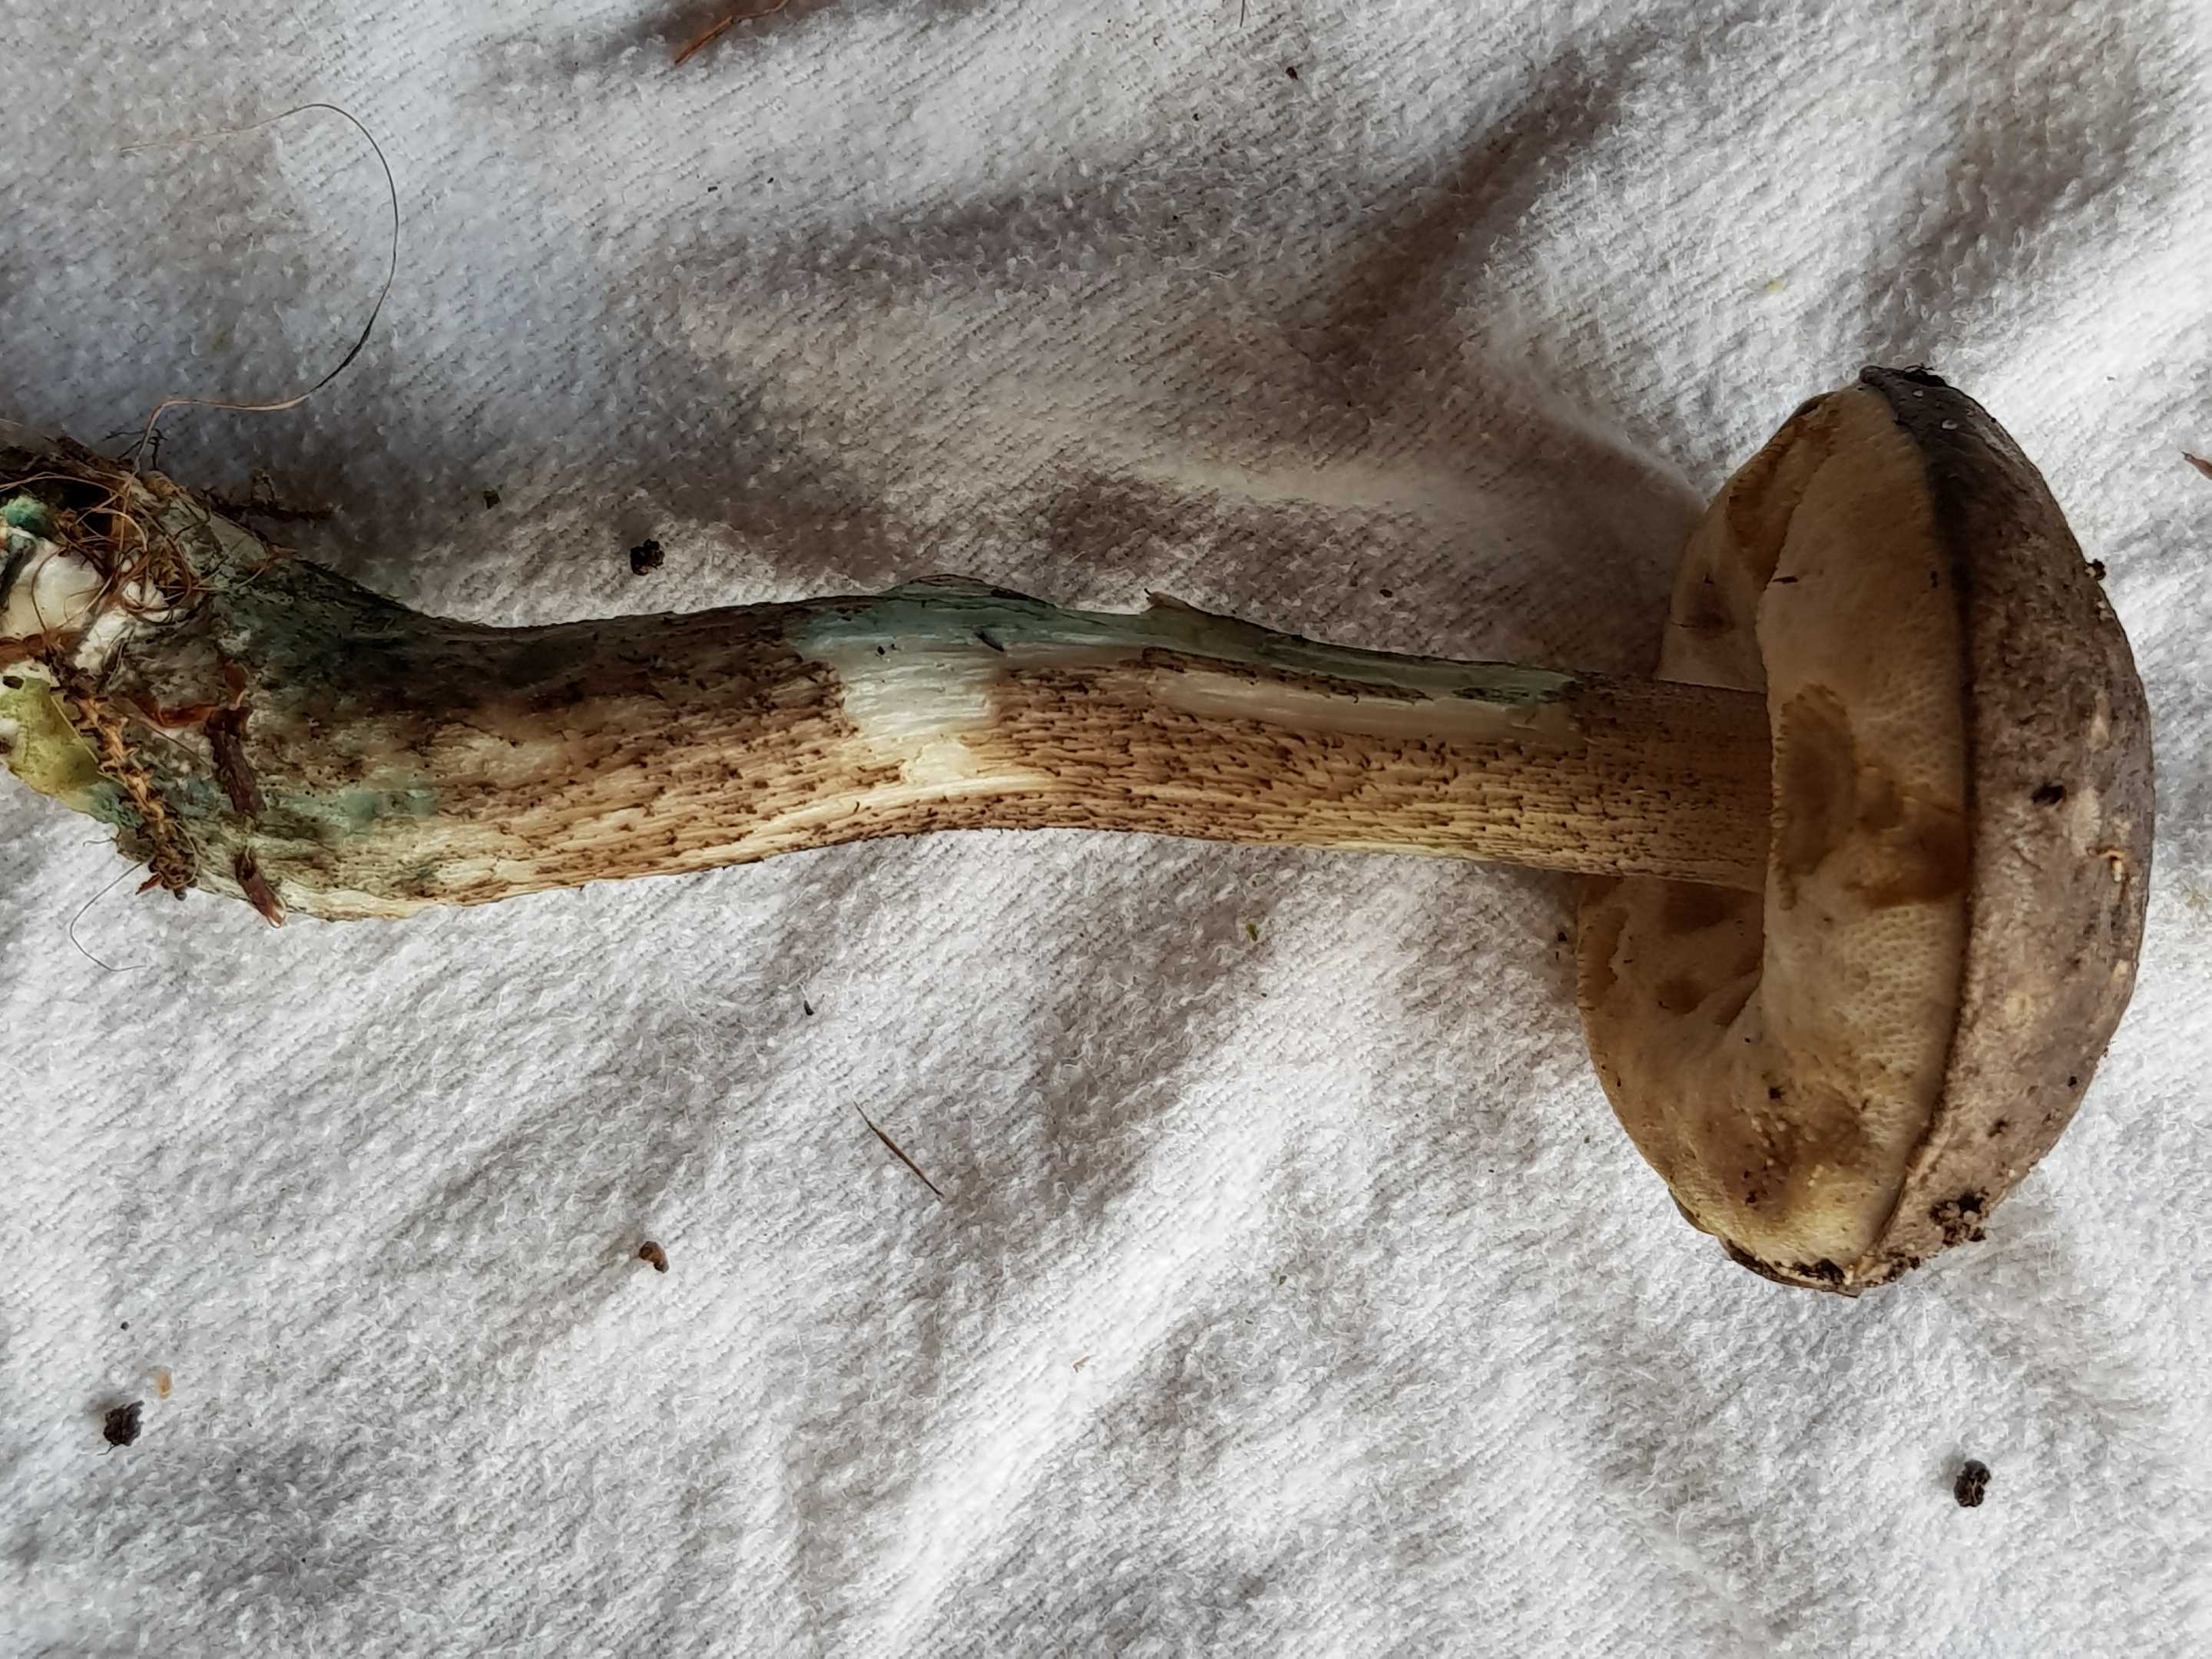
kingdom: Fungi
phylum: Basidiomycota
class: Agaricomycetes
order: Boletales
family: Boletaceae
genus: Leccinum
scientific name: Leccinum variicolor
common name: flammet skælrørhat
